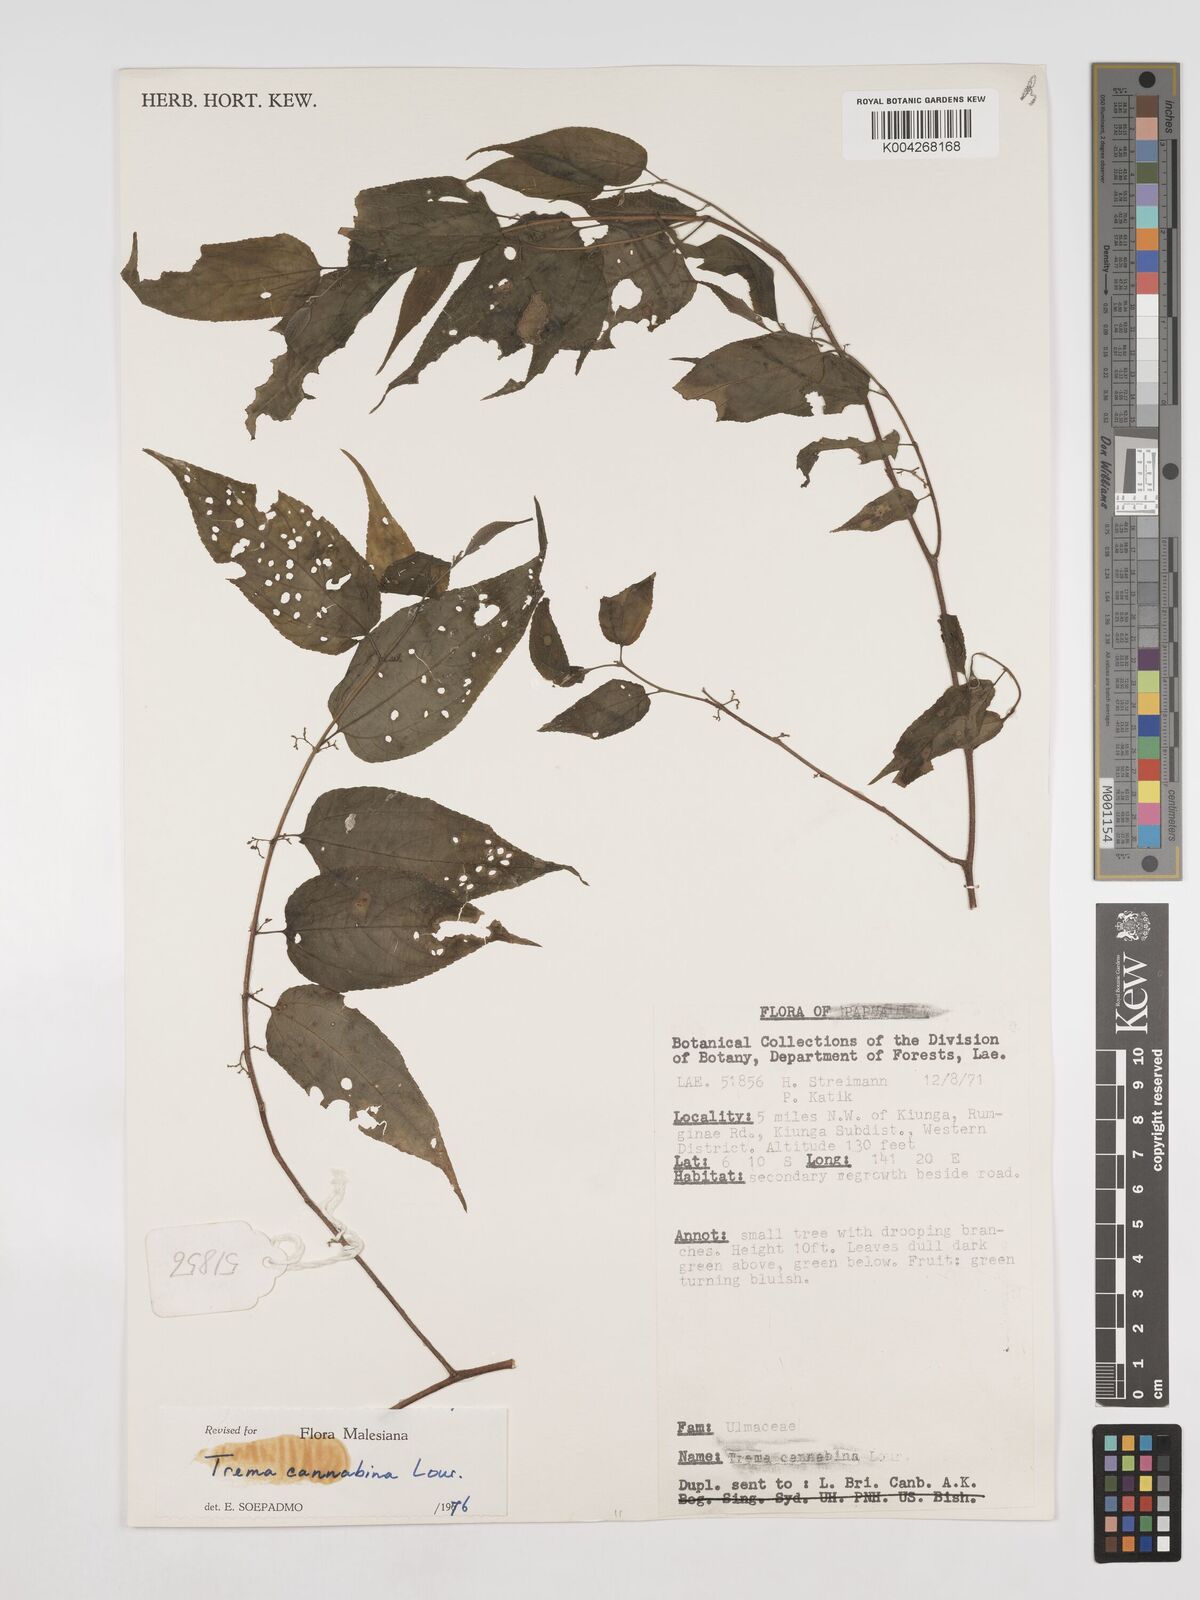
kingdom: Plantae
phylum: Tracheophyta
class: Magnoliopsida
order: Rosales
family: Cannabaceae
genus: Trema
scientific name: Trema
